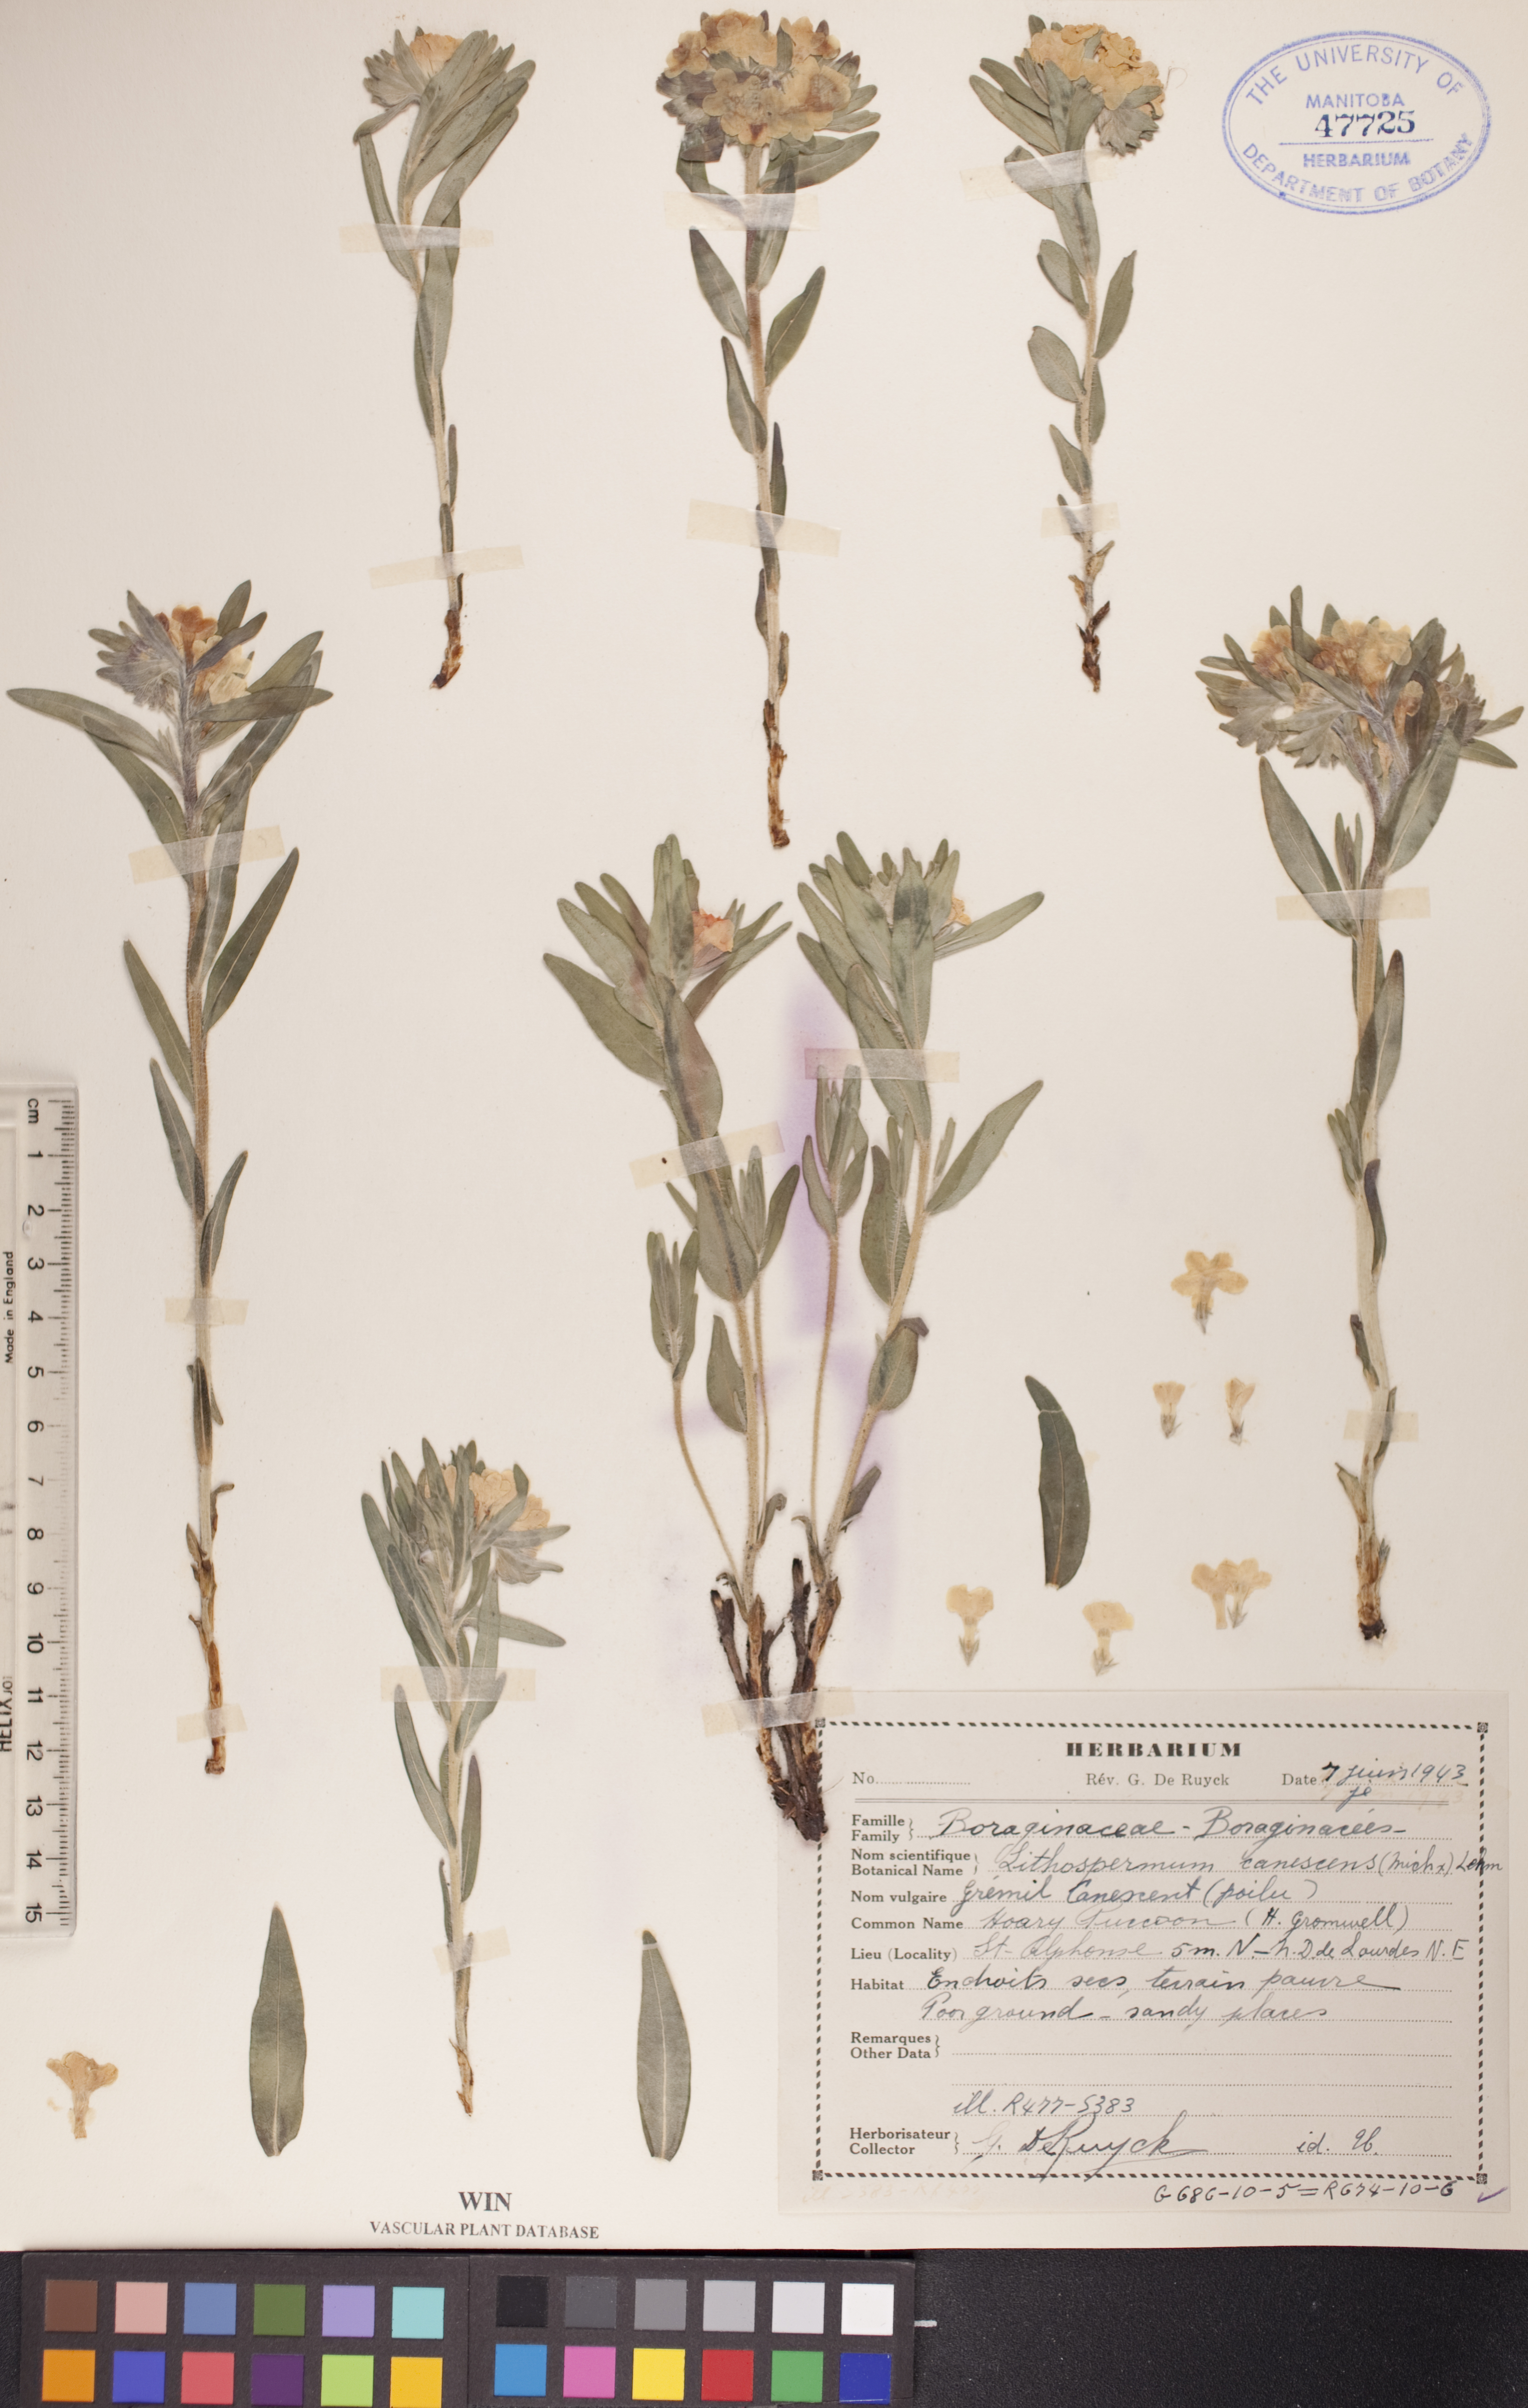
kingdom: Plantae
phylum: Tracheophyta
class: Magnoliopsida
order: Boraginales
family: Boraginaceae
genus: Lithospermum
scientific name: Lithospermum canescens
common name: Hoary puccoon
